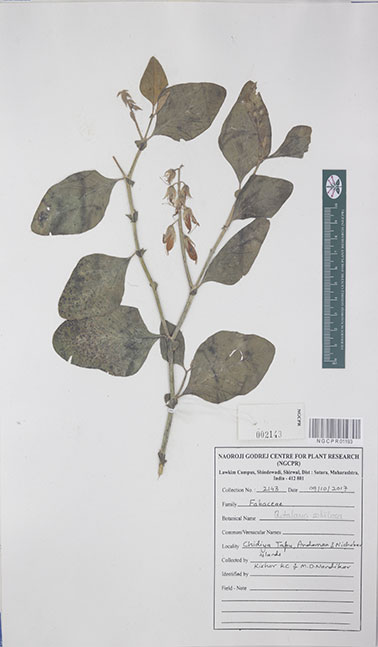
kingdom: Plantae
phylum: Tracheophyta
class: Magnoliopsida
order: Fabales
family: Fabaceae
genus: Crotolaria
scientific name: Crotolaria
